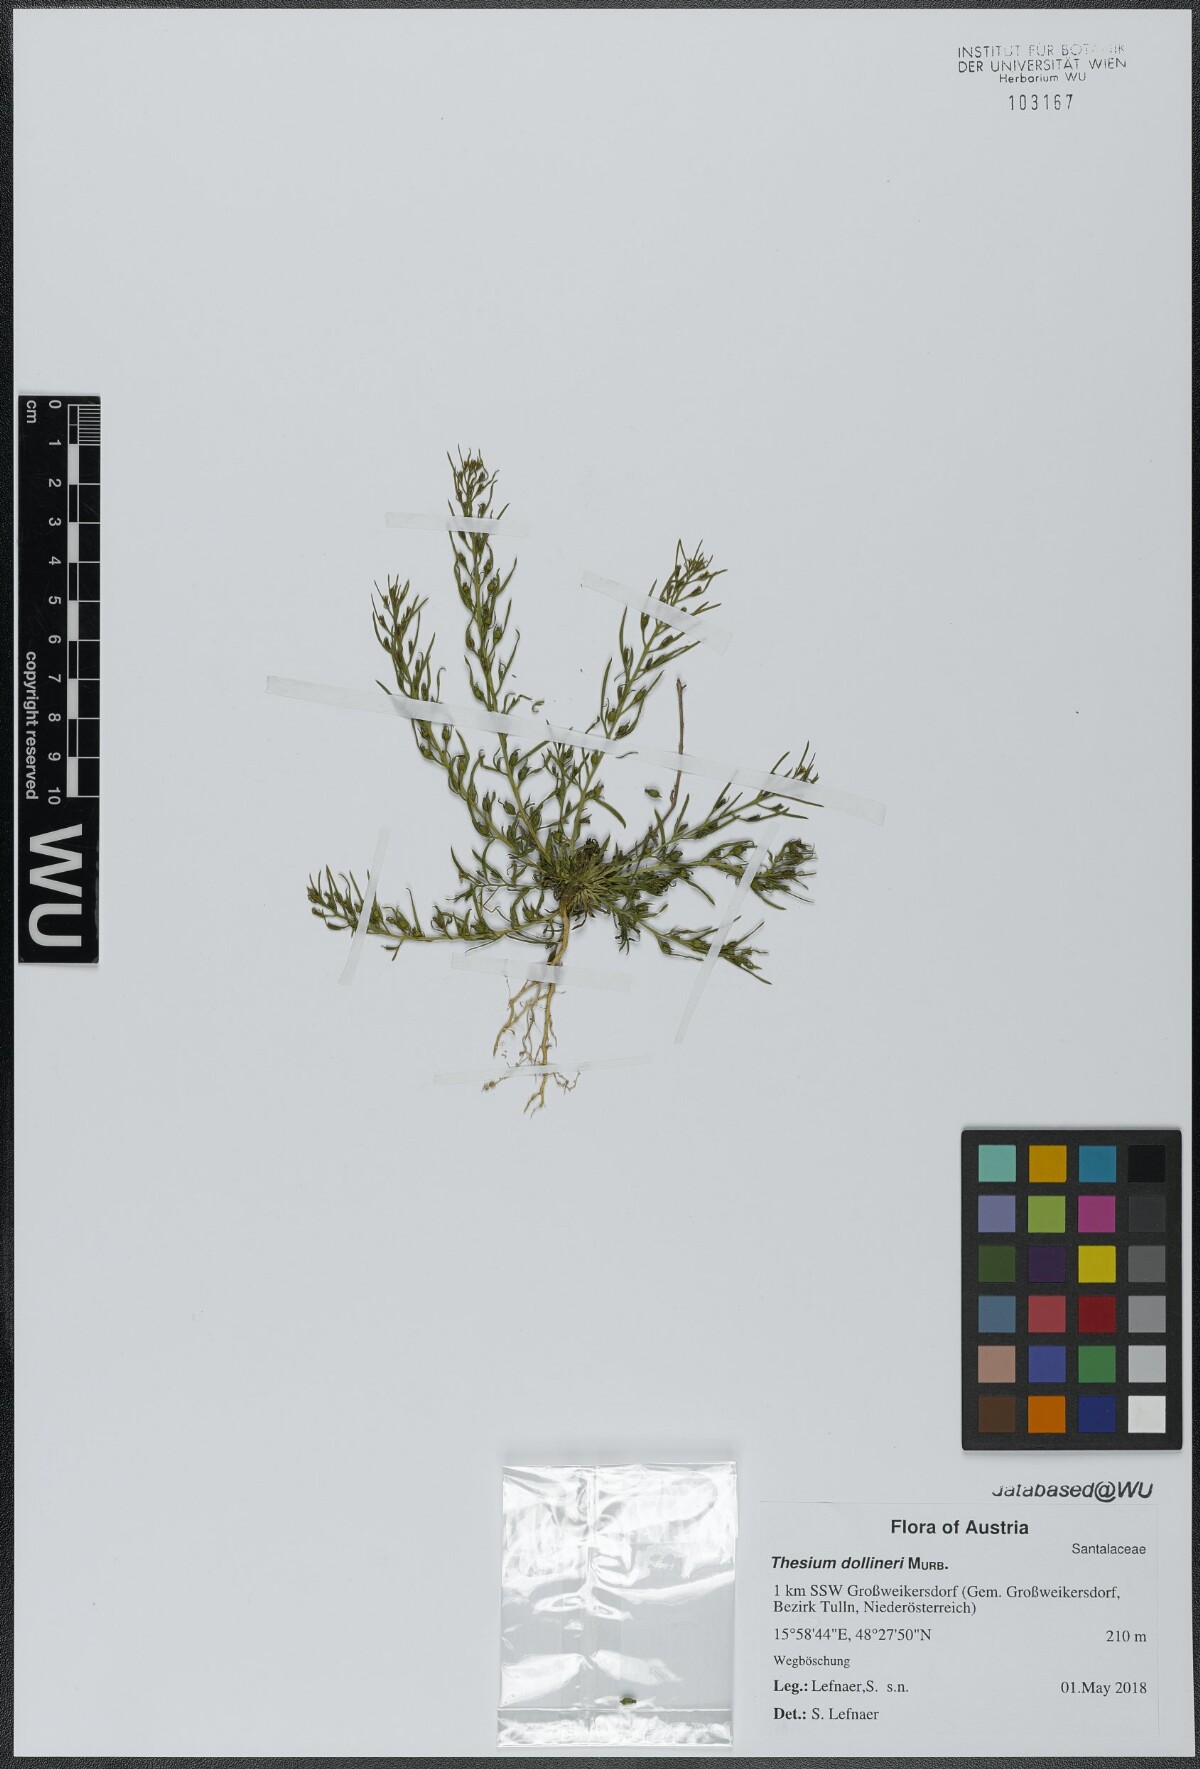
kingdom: Plantae
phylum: Tracheophyta
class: Magnoliopsida
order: Santalales
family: Thesiaceae
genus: Thesium
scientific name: Thesium dollineri
